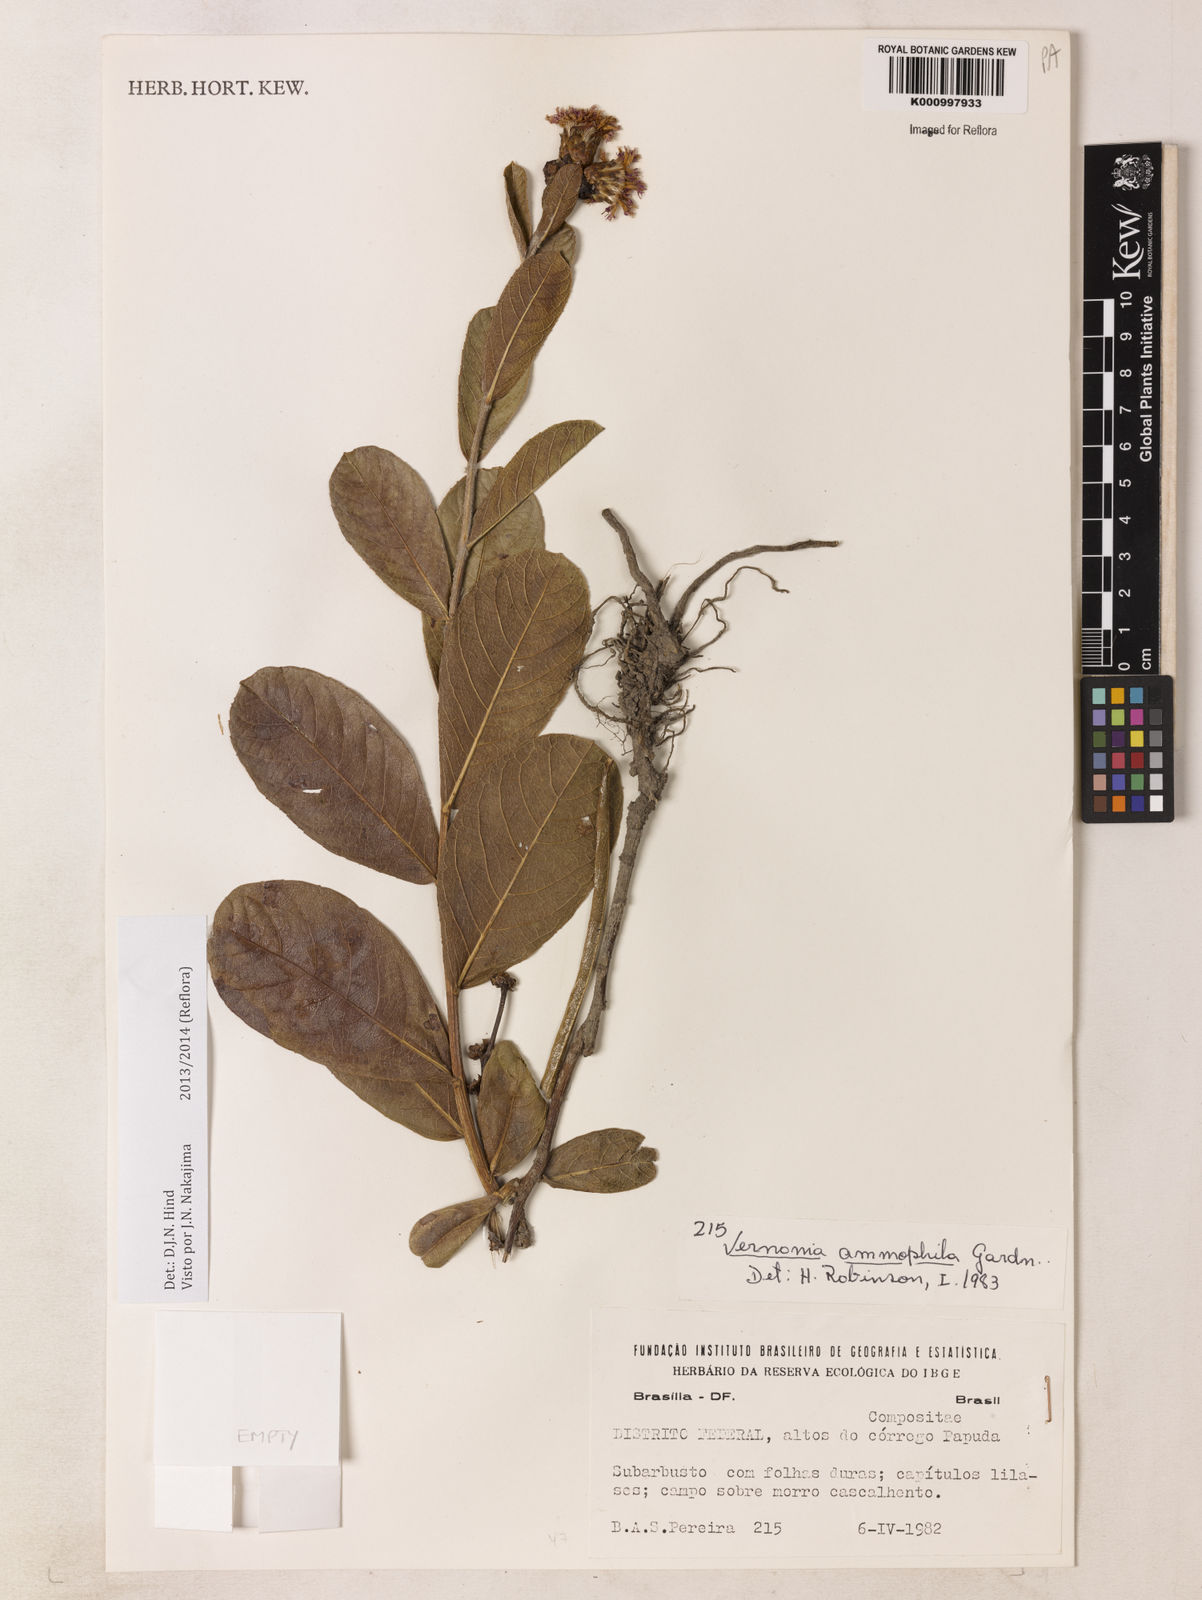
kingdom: Plantae
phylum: Tracheophyta
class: Magnoliopsida
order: Asterales
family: Asteraceae
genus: Lessingianthus
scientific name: Lessingianthus ammophilus
